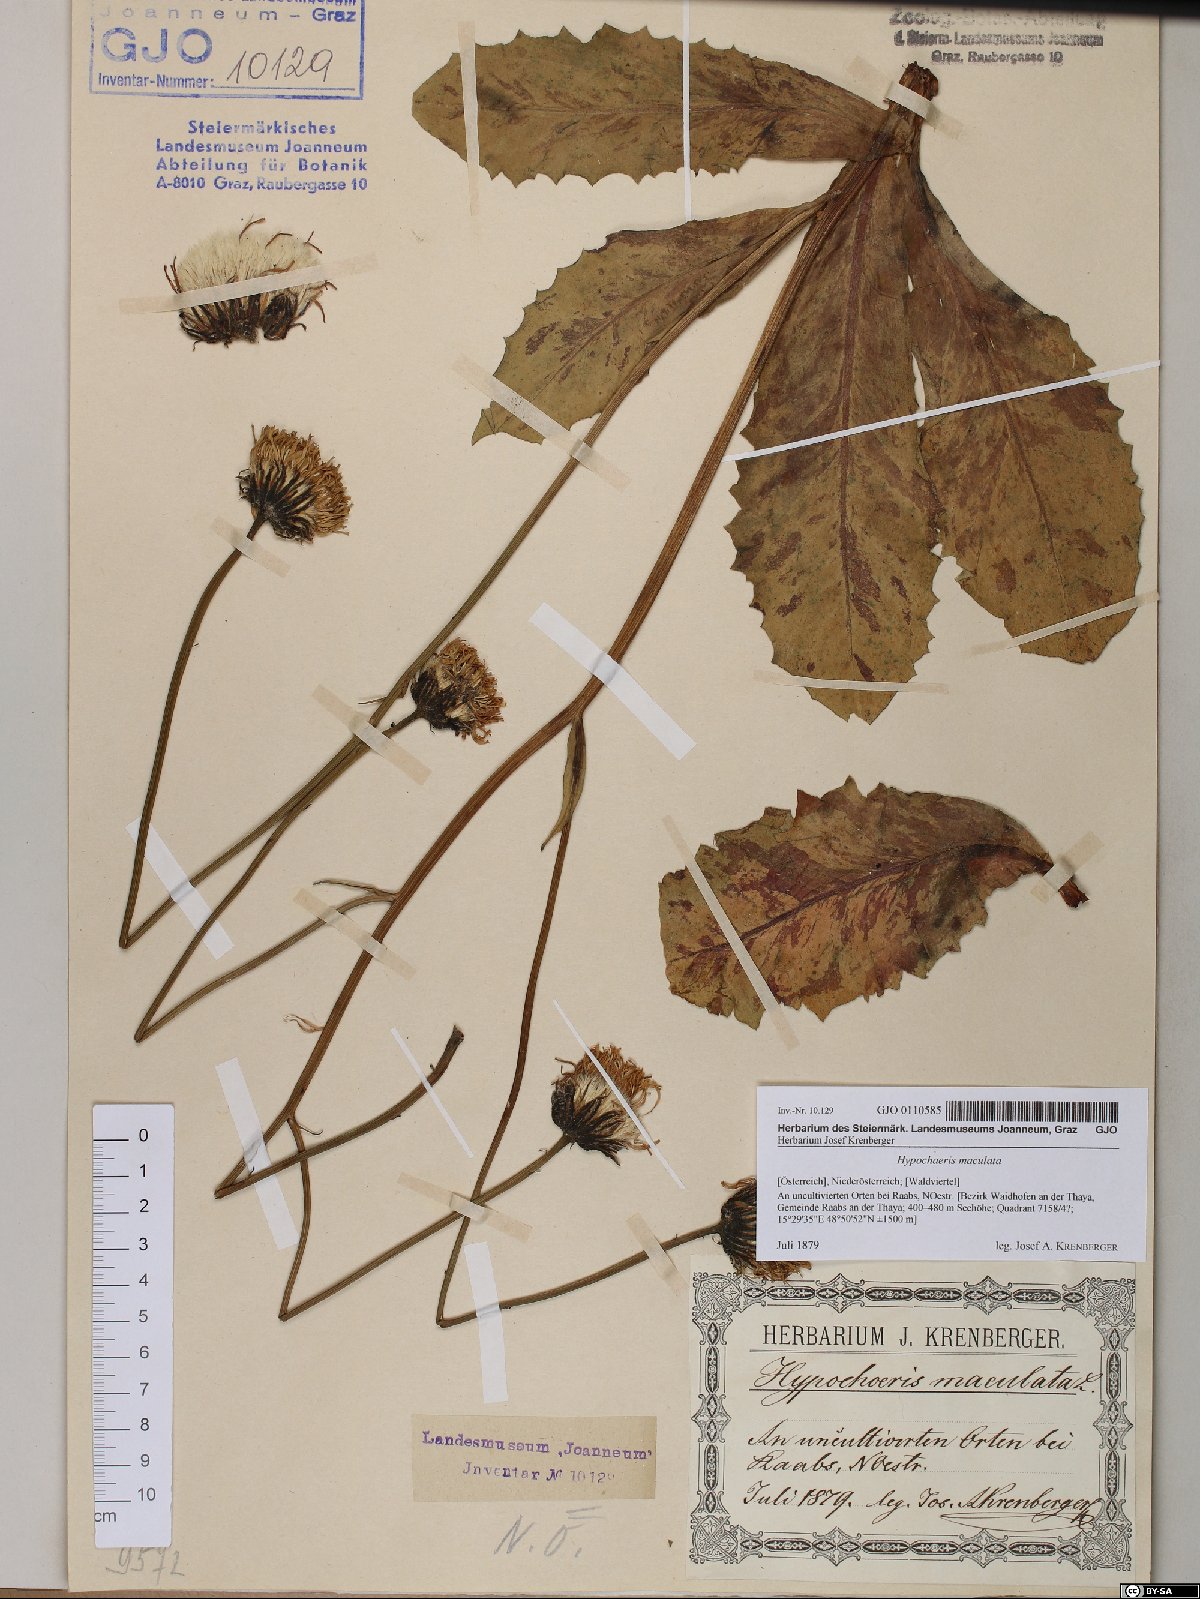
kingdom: Plantae
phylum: Tracheophyta
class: Magnoliopsida
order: Asterales
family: Asteraceae
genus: Trommsdorffia
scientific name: Trommsdorffia maculata
